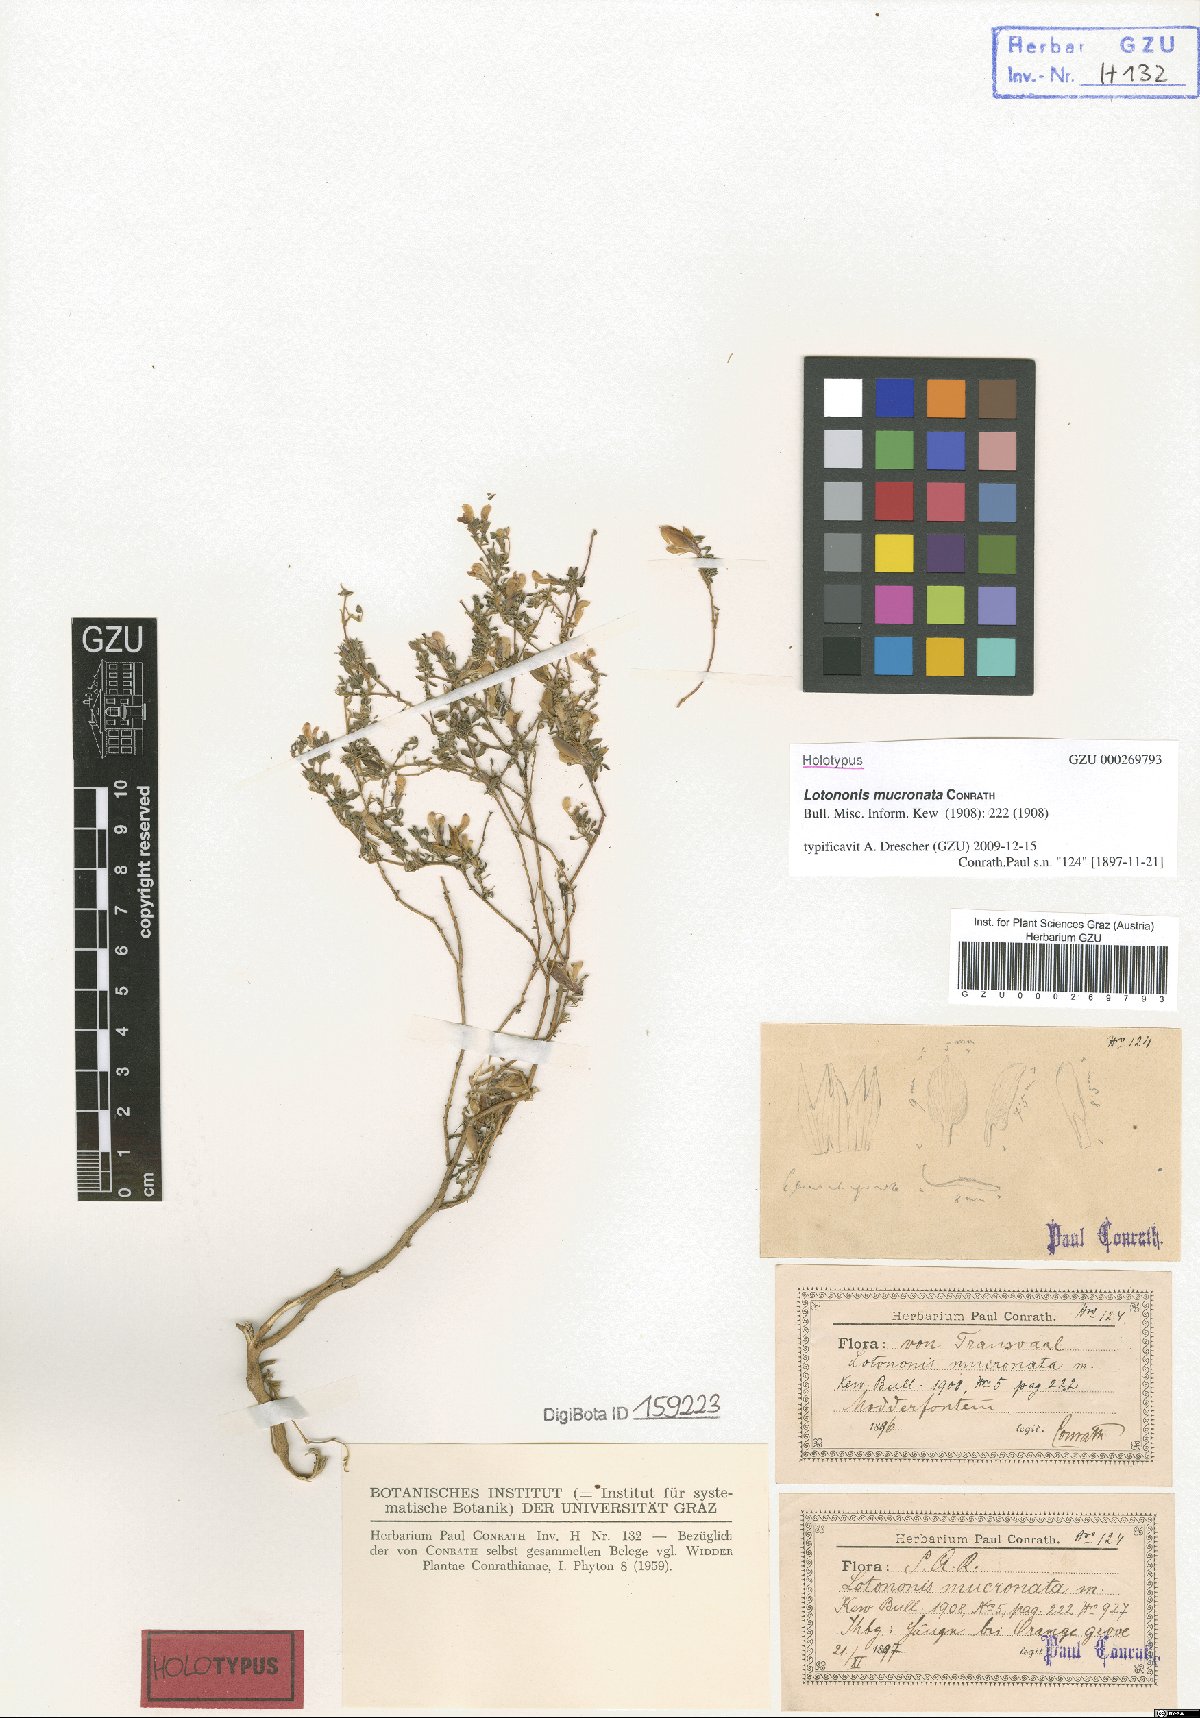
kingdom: Plantae
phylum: Tracheophyta
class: Magnoliopsida
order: Fabales
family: Fabaceae
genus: Leobordea
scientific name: Leobordea mucronata
